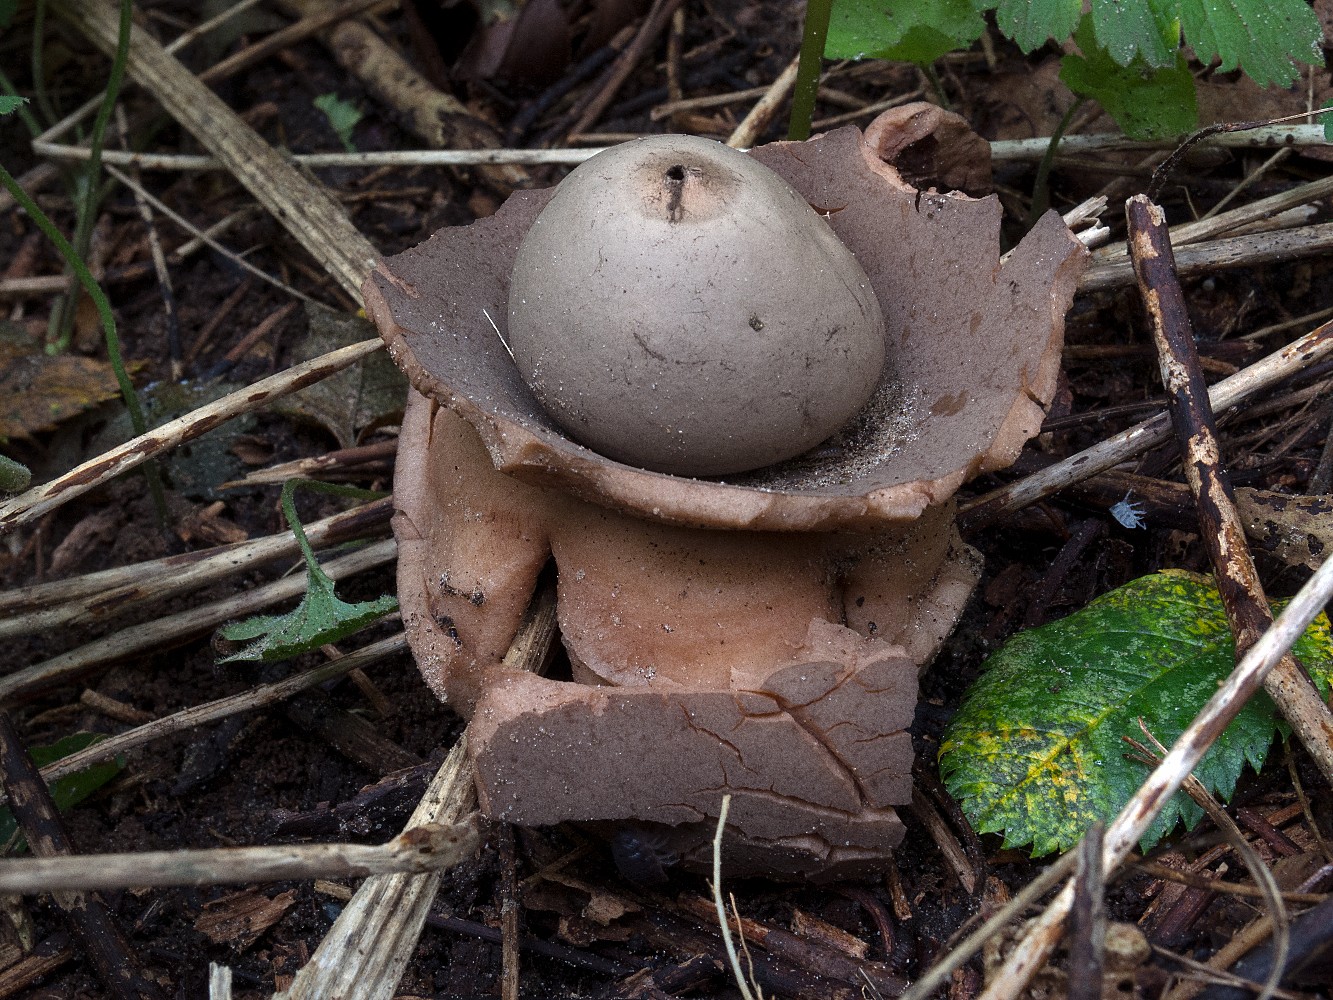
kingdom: Fungi
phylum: Basidiomycota
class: Agaricomycetes
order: Geastrales
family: Geastraceae
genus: Geastrum
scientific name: Geastrum michelianum
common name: kødet stjernebold
